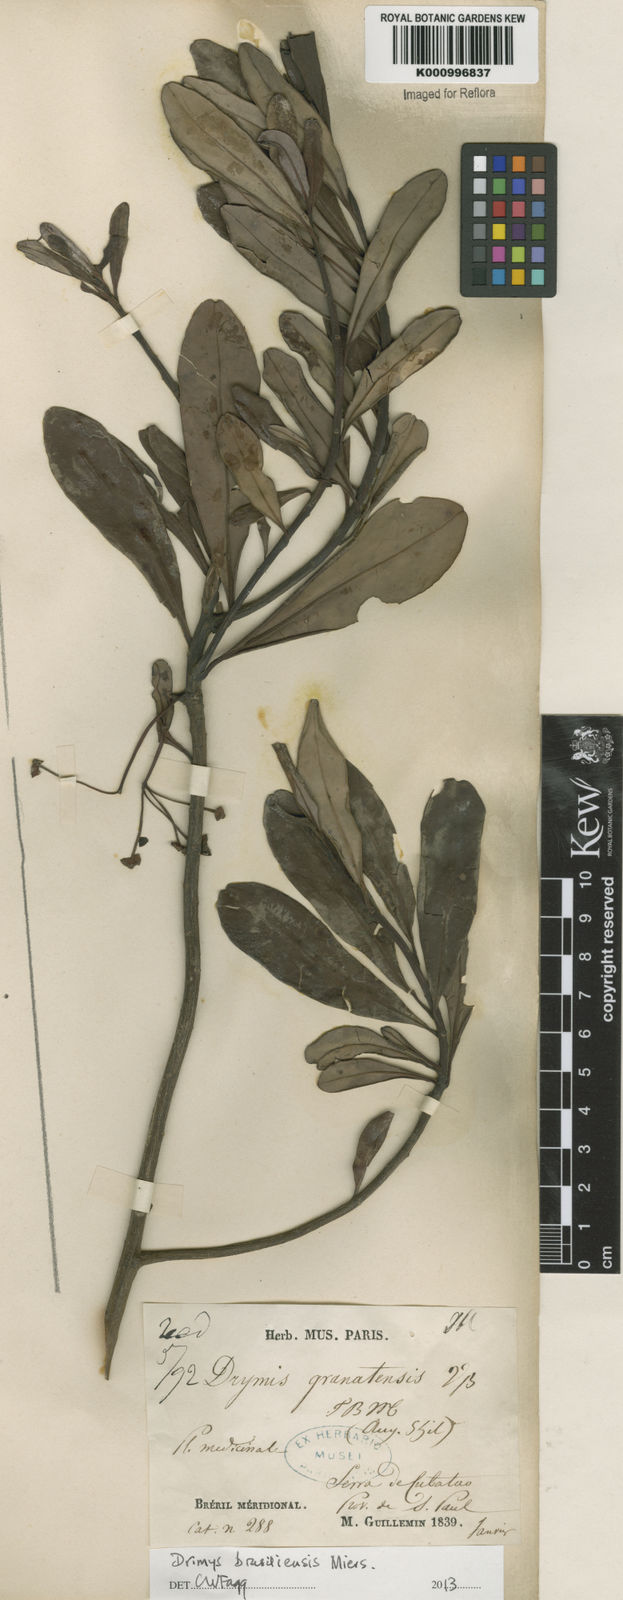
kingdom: Plantae
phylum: Tracheophyta
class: Magnoliopsida
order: Canellales
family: Winteraceae
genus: Drimys
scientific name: Drimys brasiliensis
